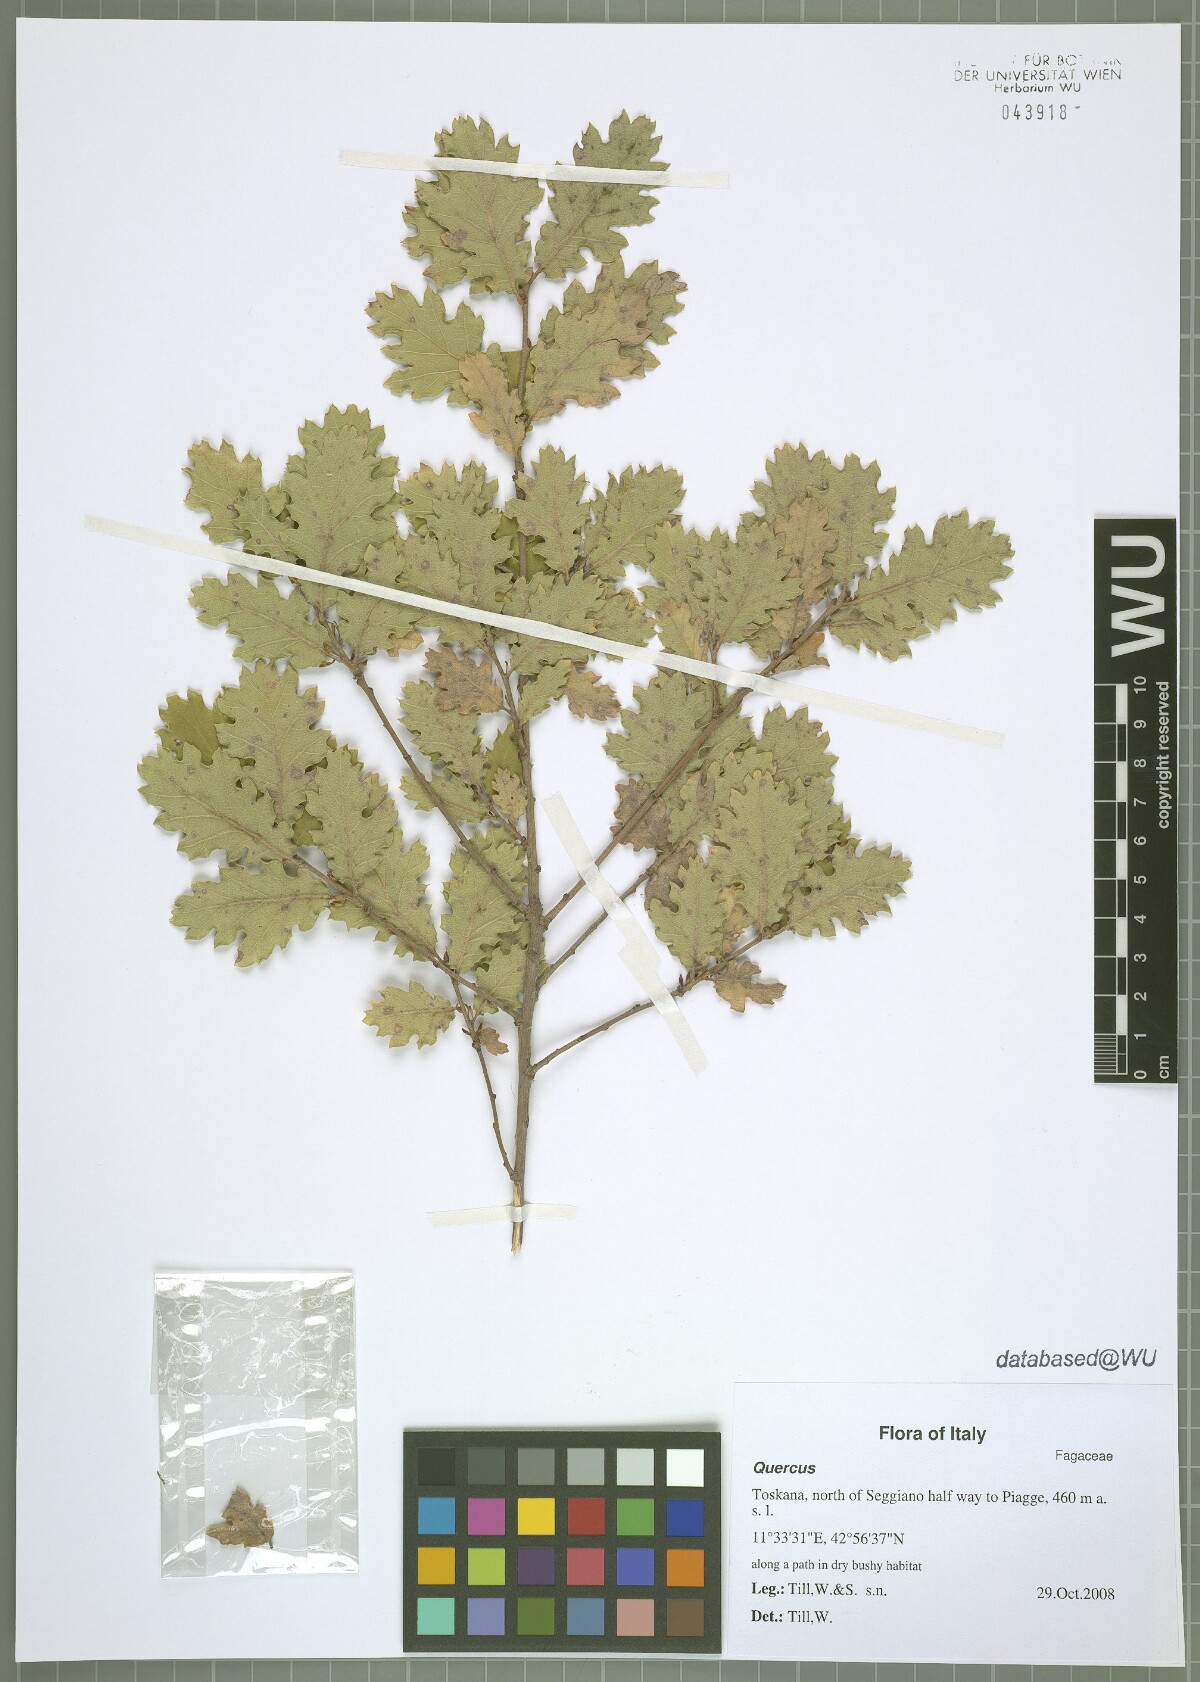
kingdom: Plantae
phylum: Tracheophyta
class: Magnoliopsida
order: Fagales
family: Fagaceae
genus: Quercus
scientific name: Quercus pubescens
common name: Downy oak
